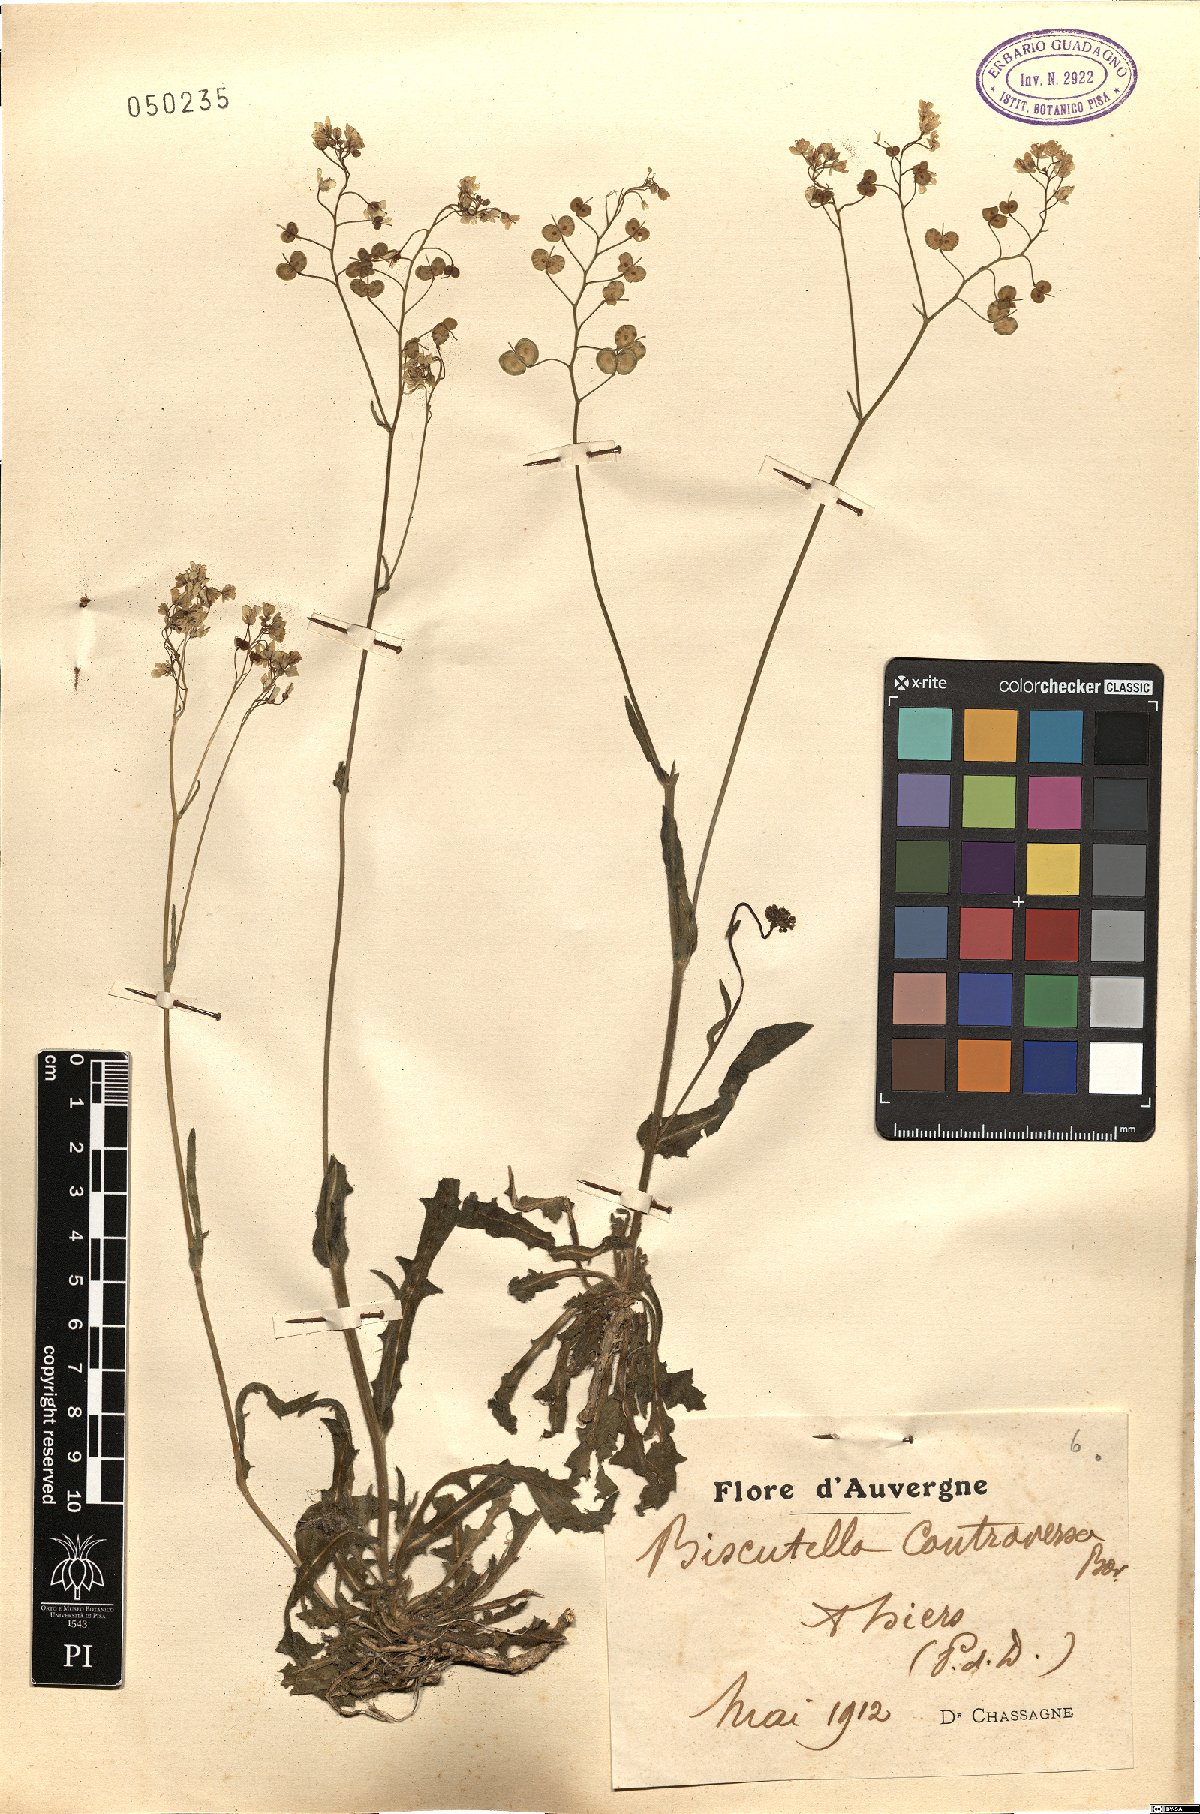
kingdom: Plantae
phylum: Tracheophyta
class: Magnoliopsida
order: Brassicales
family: Brassicaceae
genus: Biscutella
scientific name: Biscutella controversa
